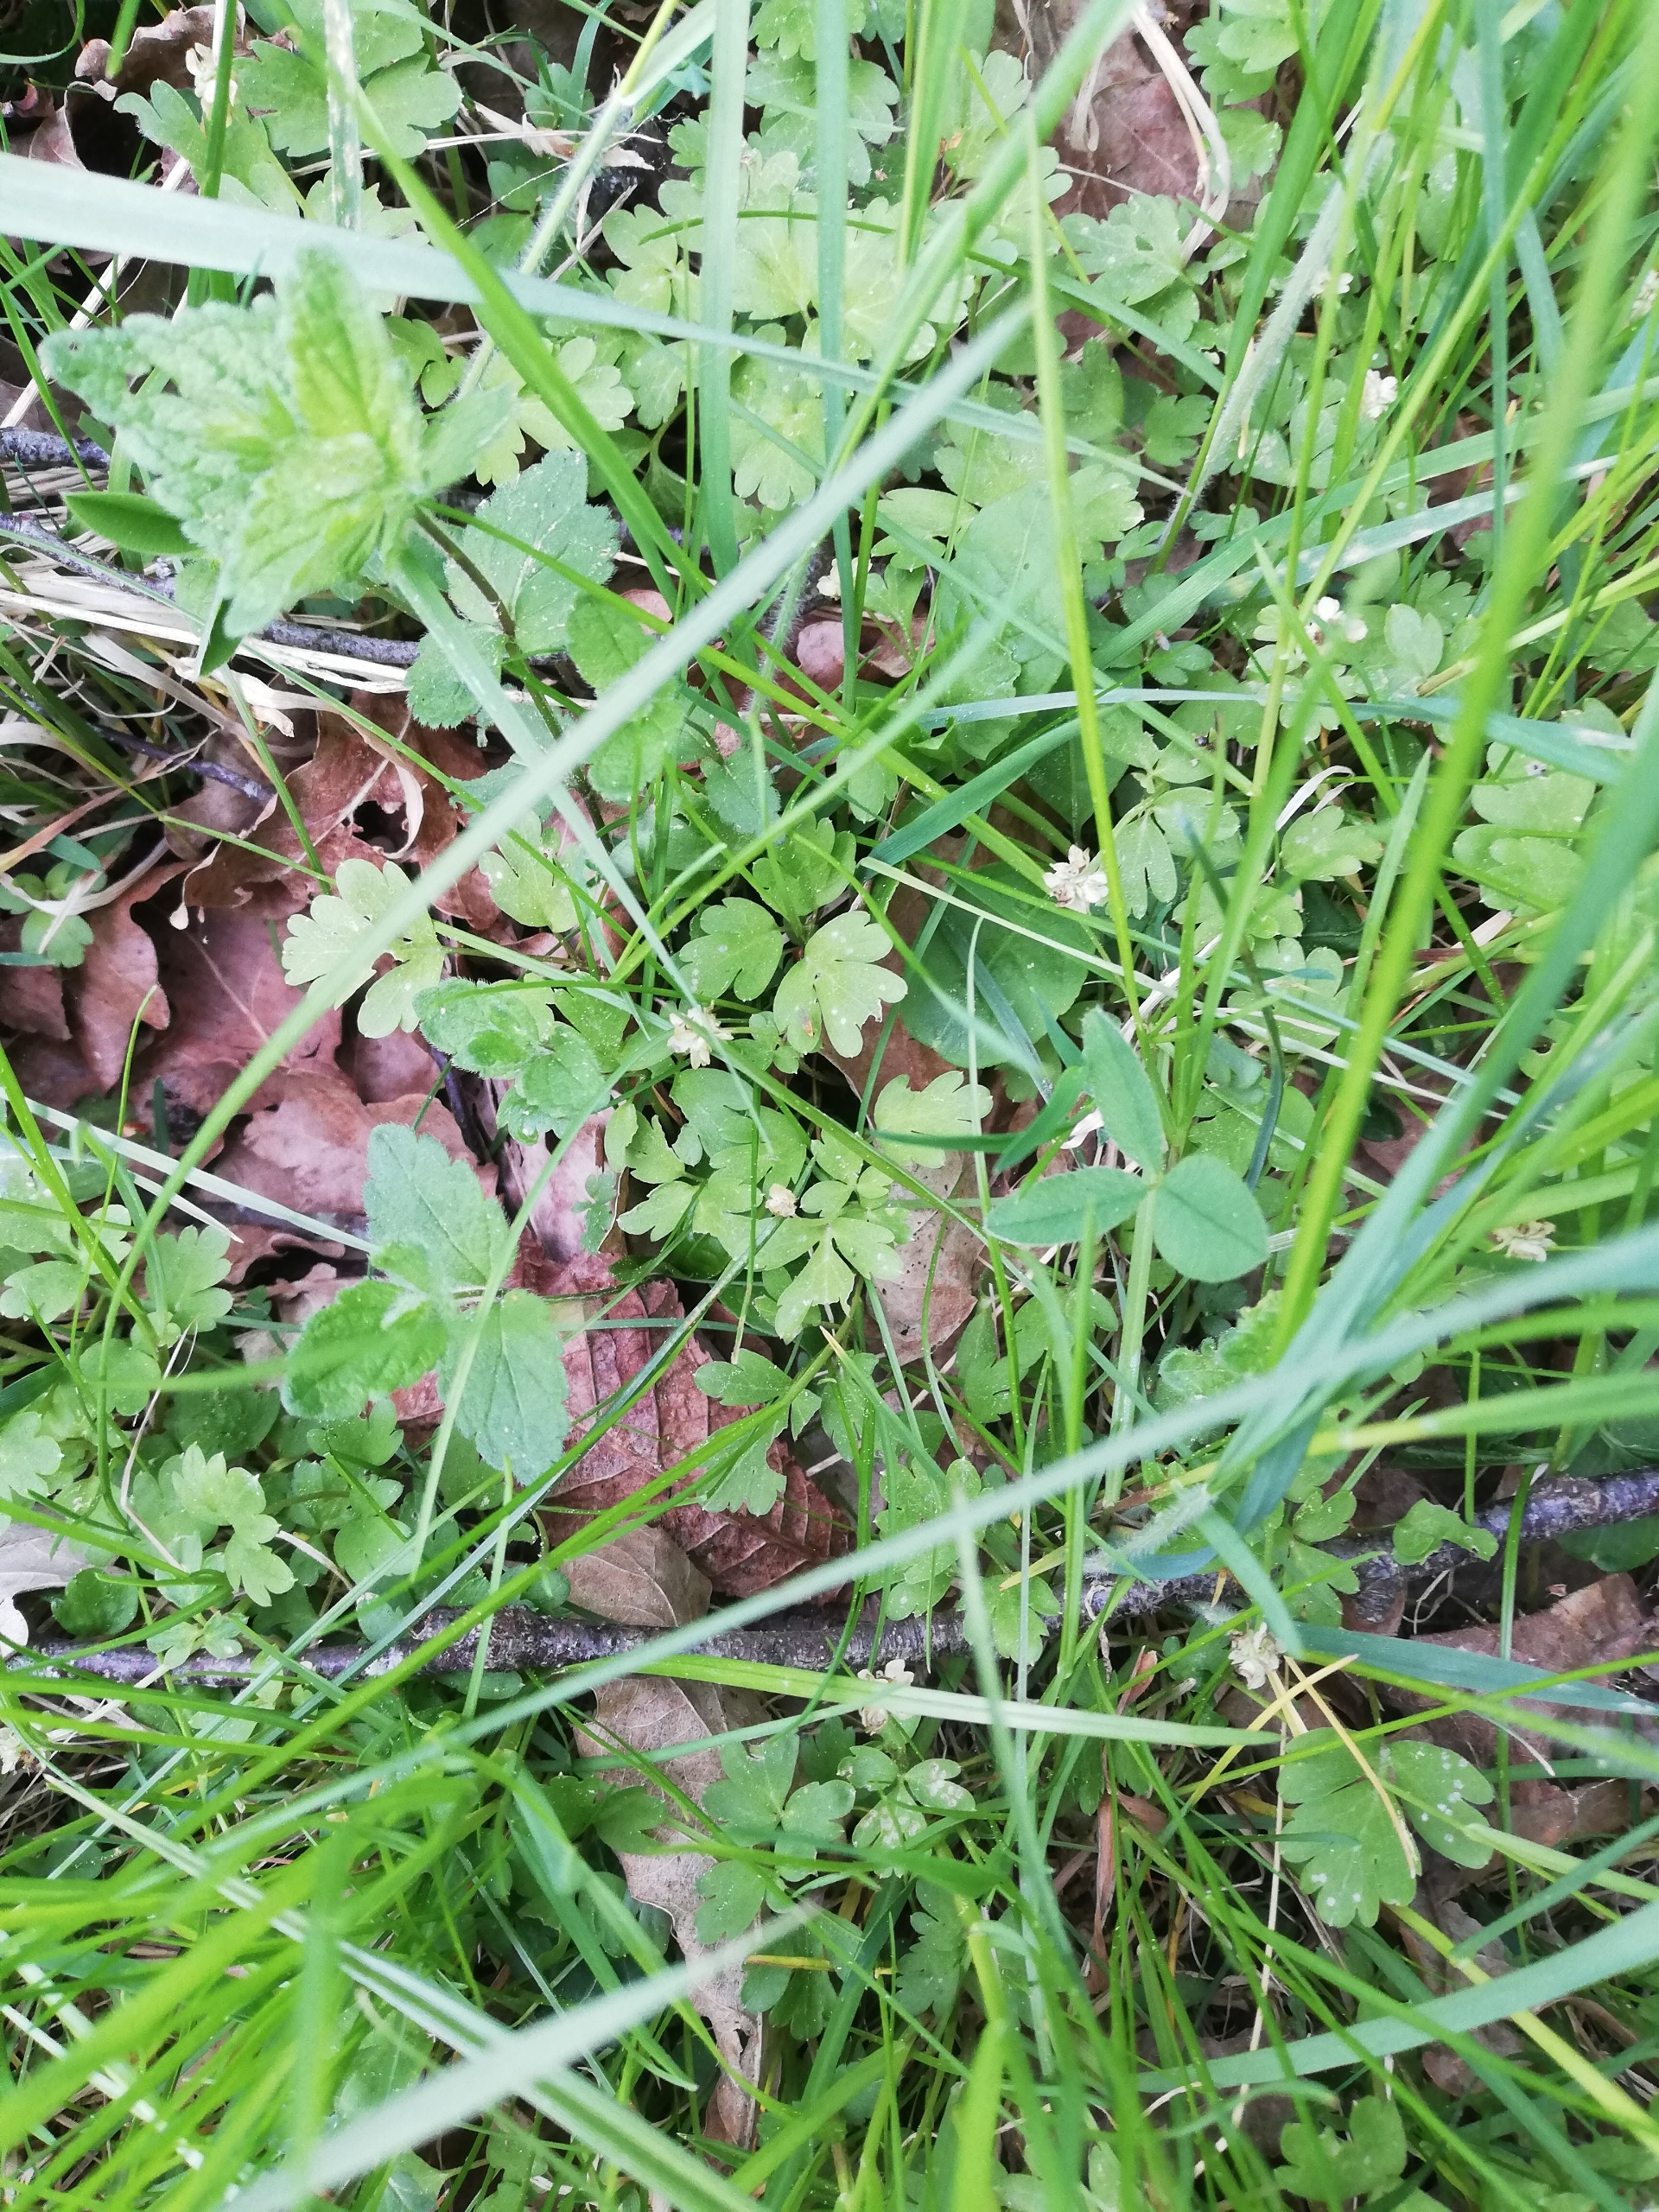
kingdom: Plantae
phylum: Tracheophyta
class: Magnoliopsida
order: Dipsacales
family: Viburnaceae
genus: Adoxa
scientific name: Adoxa moschatellina
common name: Desmerurt
